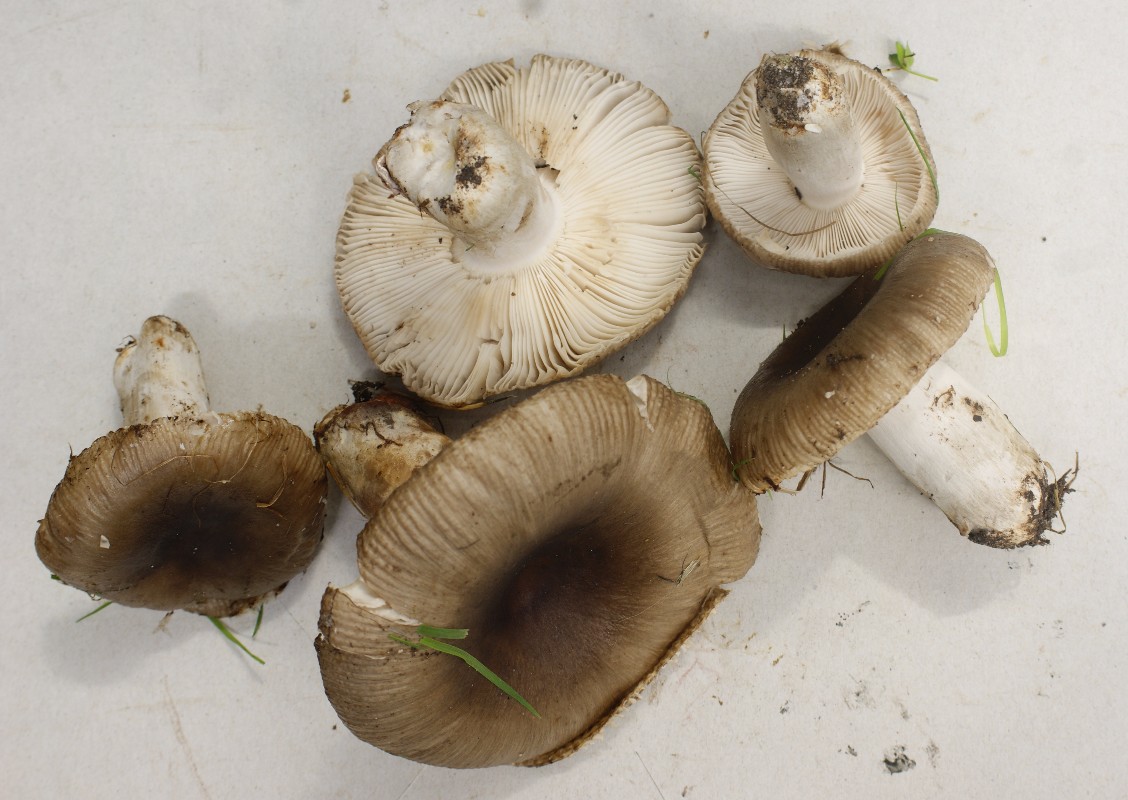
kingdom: Fungi
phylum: Basidiomycota
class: Agaricomycetes
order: Russulales
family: Russulaceae
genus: Russula
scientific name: Russula amoenolens
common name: skarp kam-skørhat
